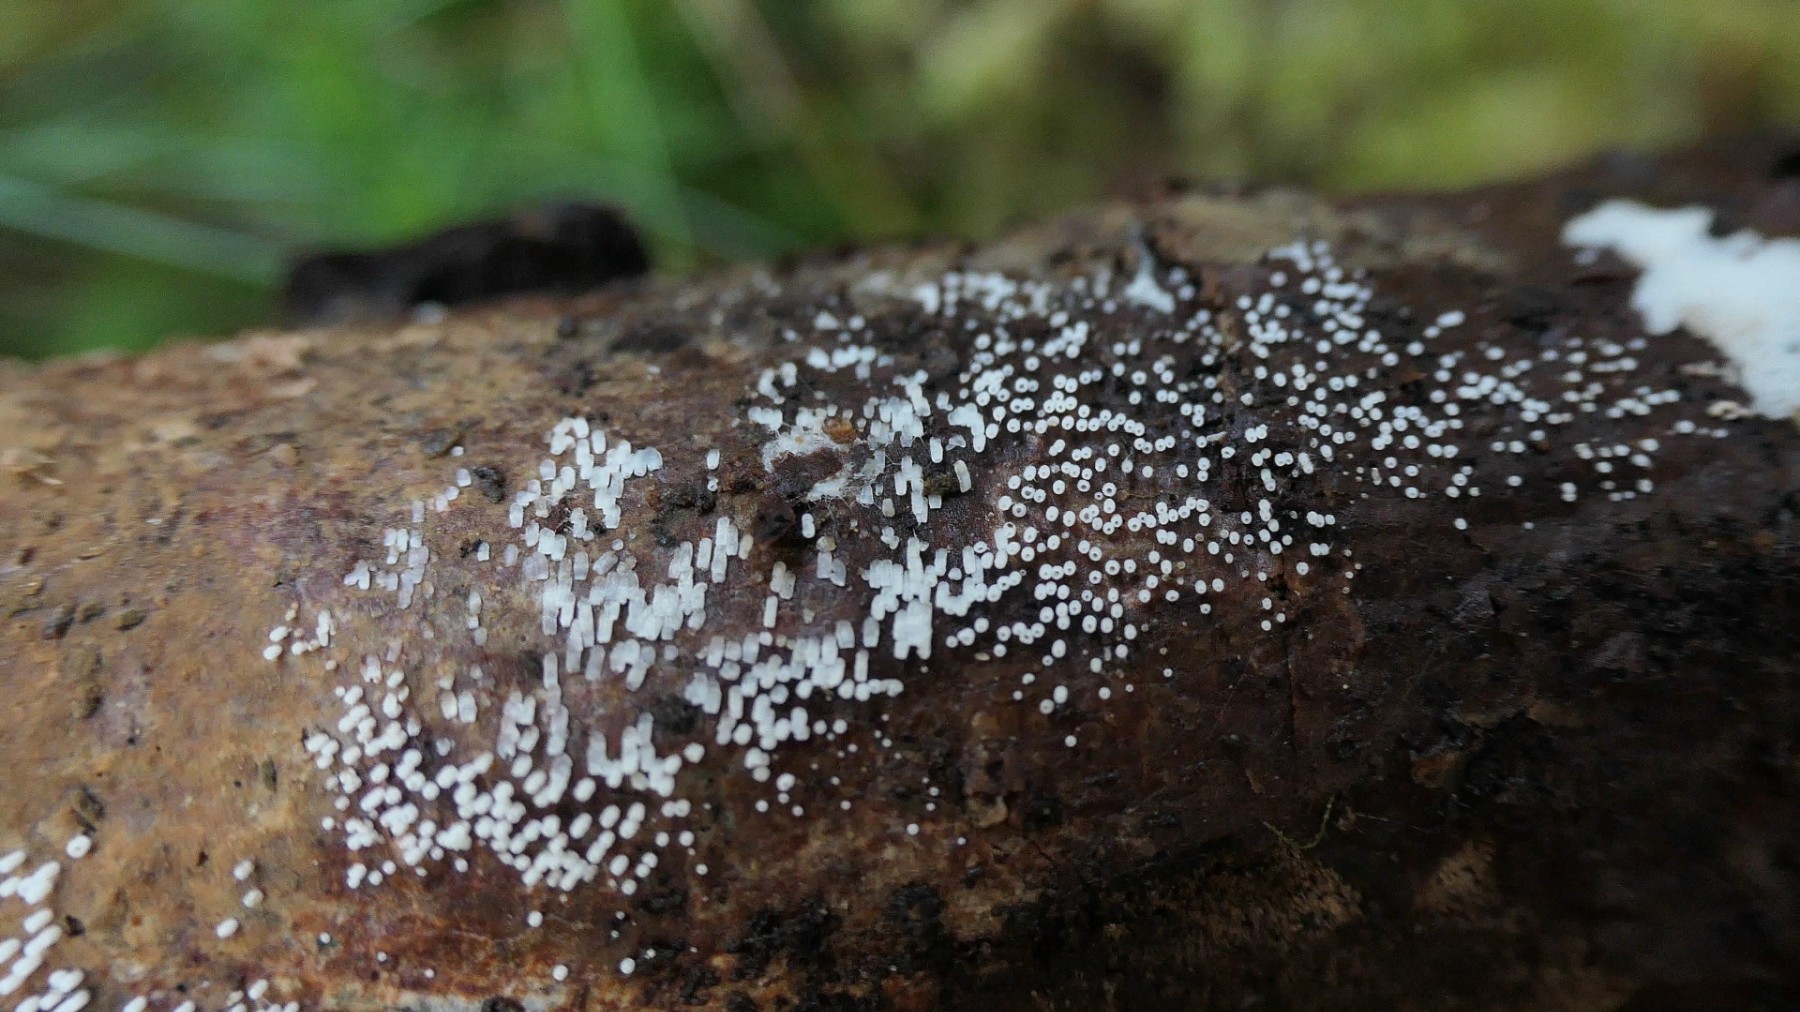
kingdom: Fungi
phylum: Basidiomycota
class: Agaricomycetes
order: Agaricales
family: Marasmiaceae
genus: Henningsomyces
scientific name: Henningsomyces candidus
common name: glat hængerør
